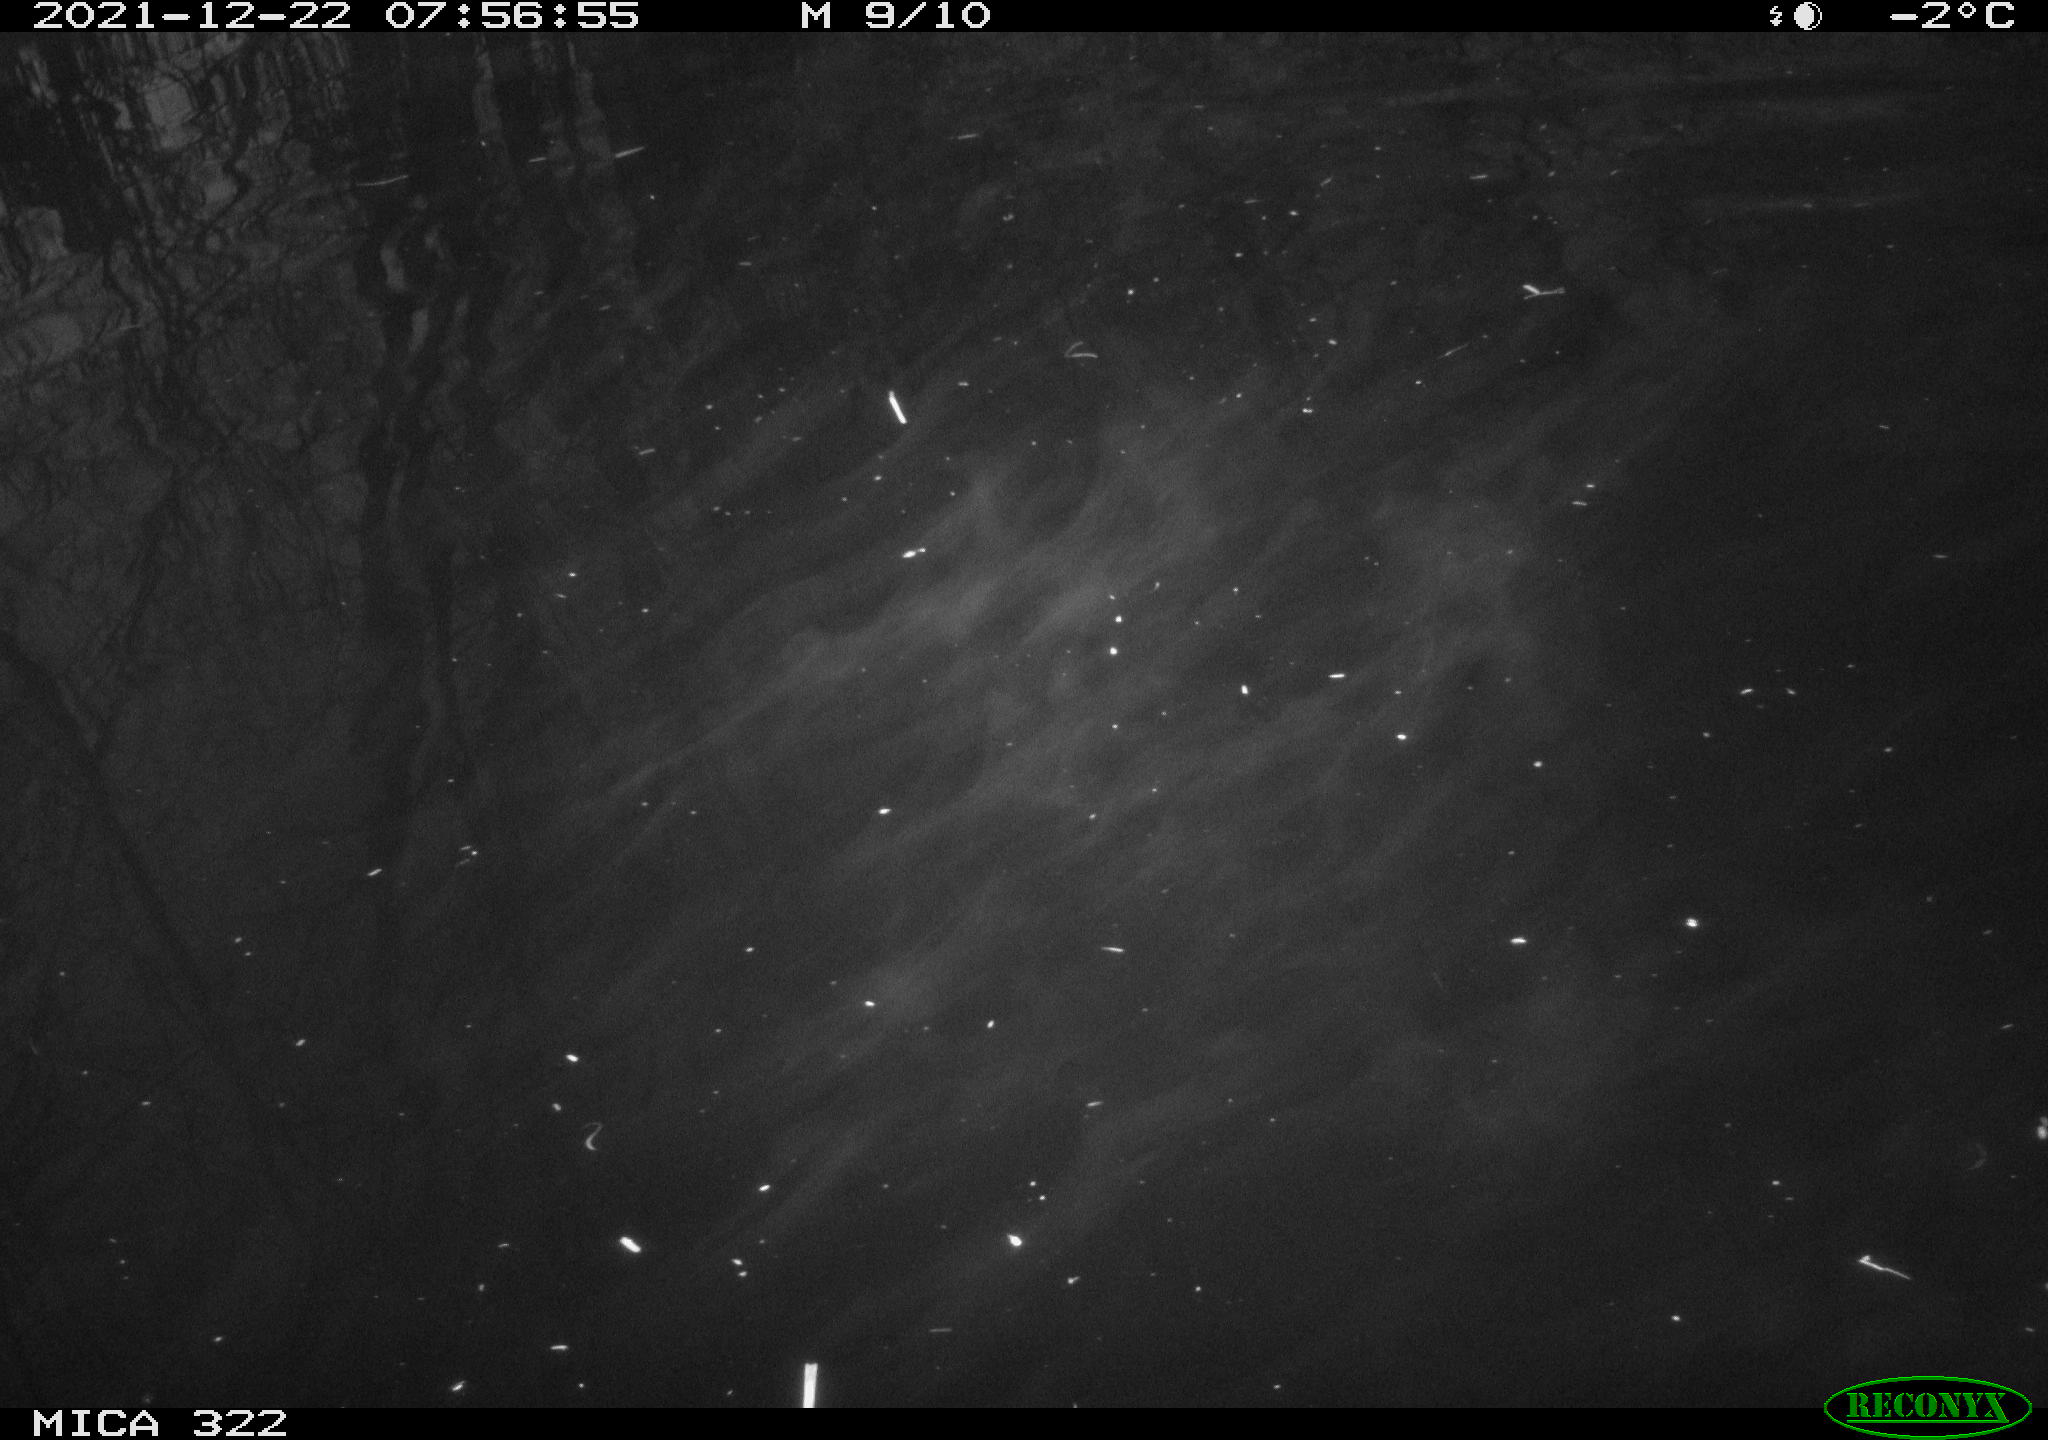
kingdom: Animalia
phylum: Chordata
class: Aves
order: Anseriformes
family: Anatidae
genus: Anas
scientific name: Anas
